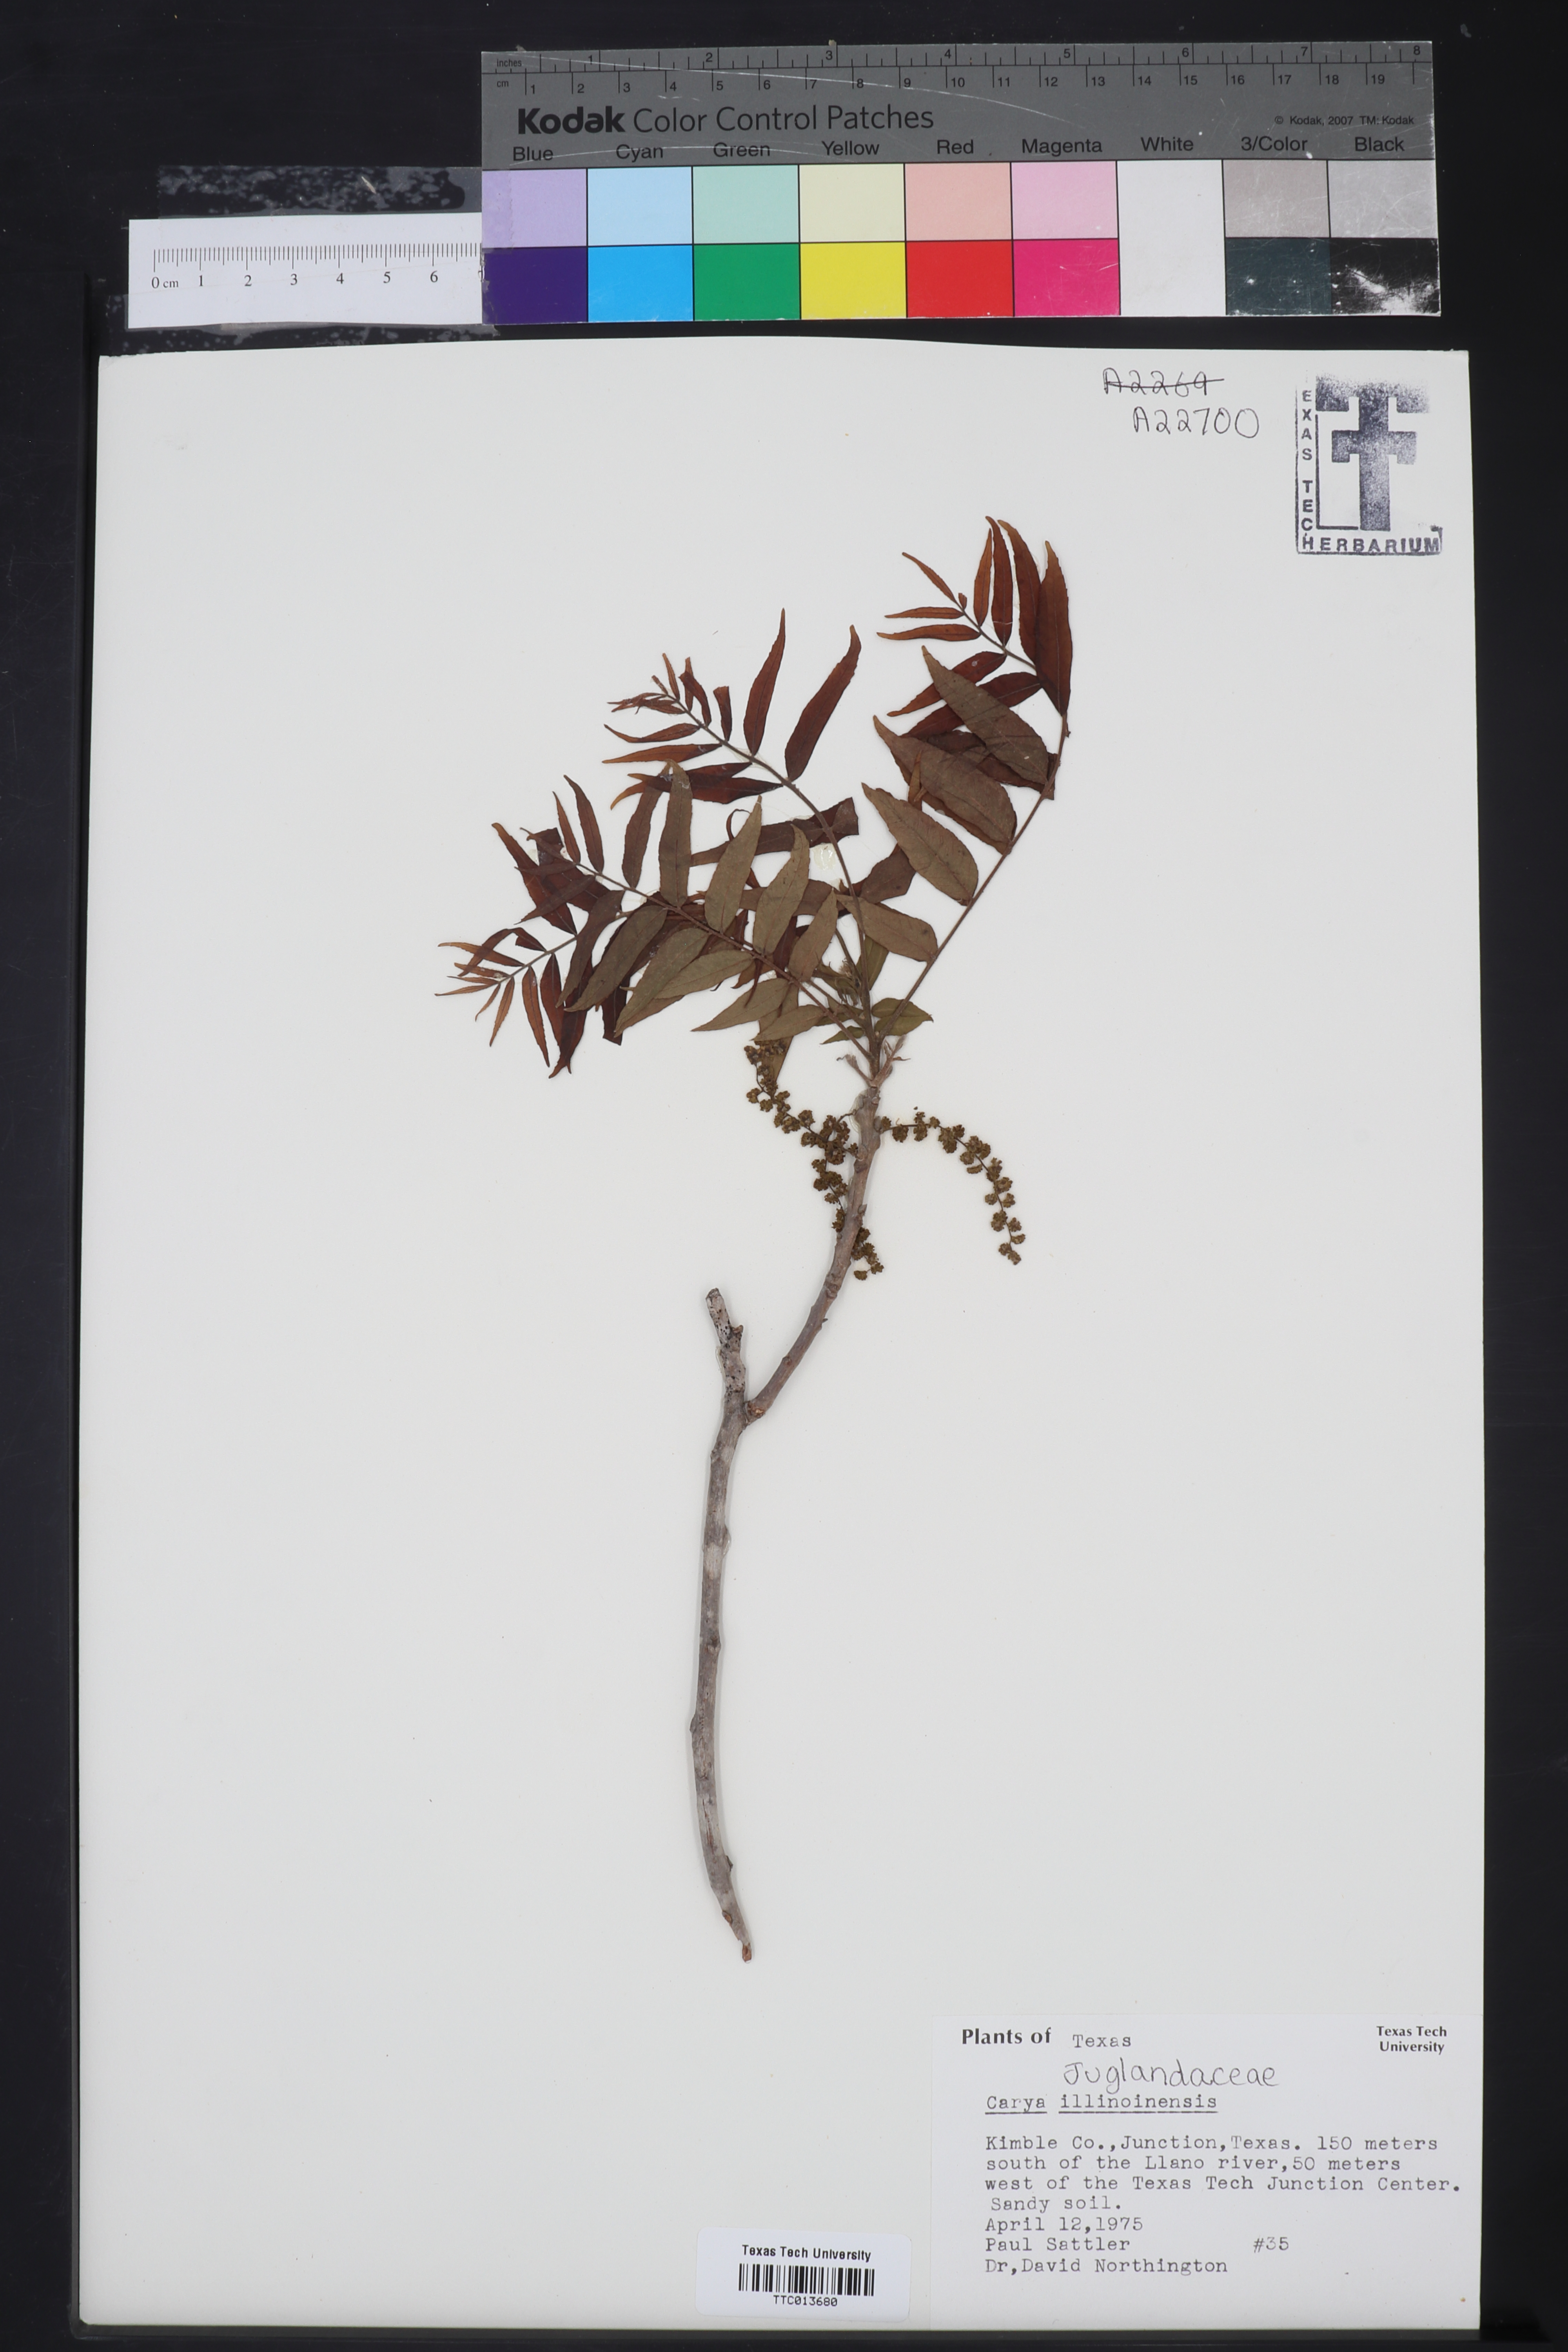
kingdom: Plantae
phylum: Tracheophyta
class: Magnoliopsida
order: Fagales
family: Juglandaceae
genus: Carya
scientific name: Carya
